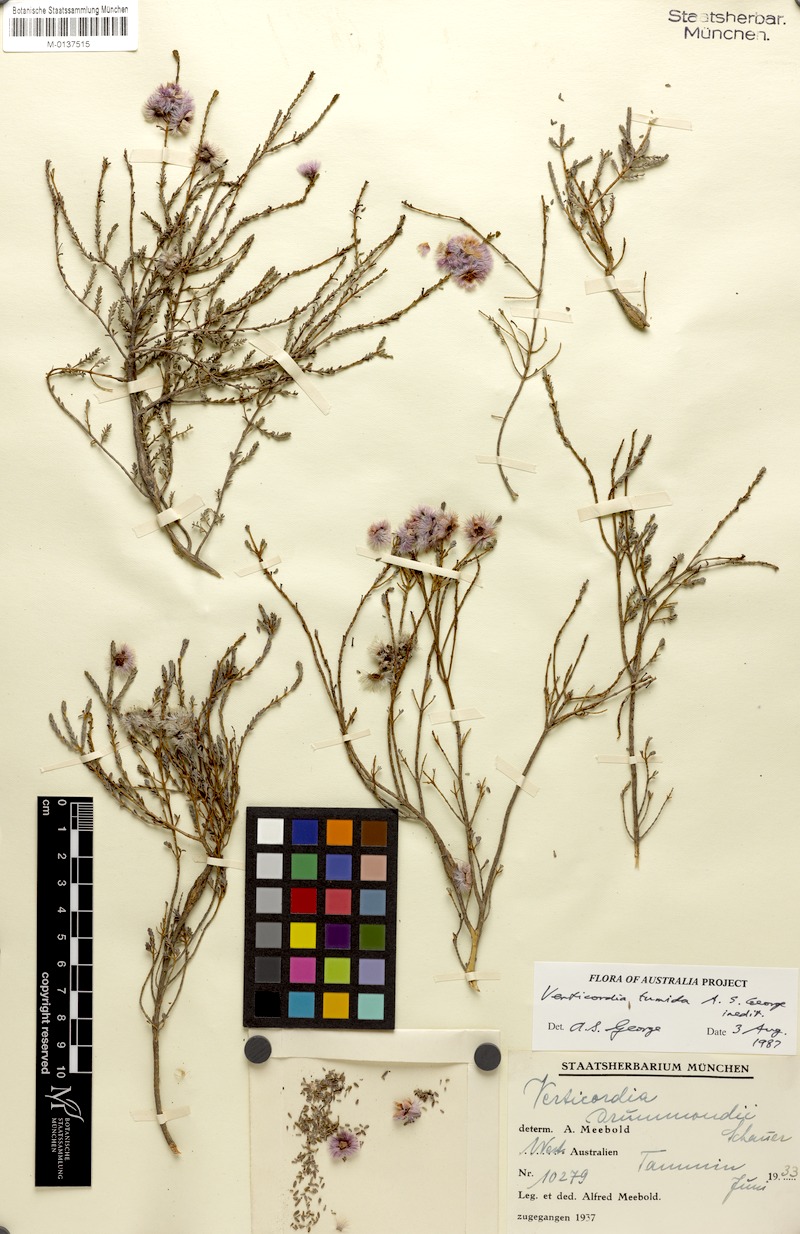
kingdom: Plantae
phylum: Tracheophyta
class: Magnoliopsida
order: Myrtales
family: Myrtaceae
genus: Verticordia
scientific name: Verticordia tumida
